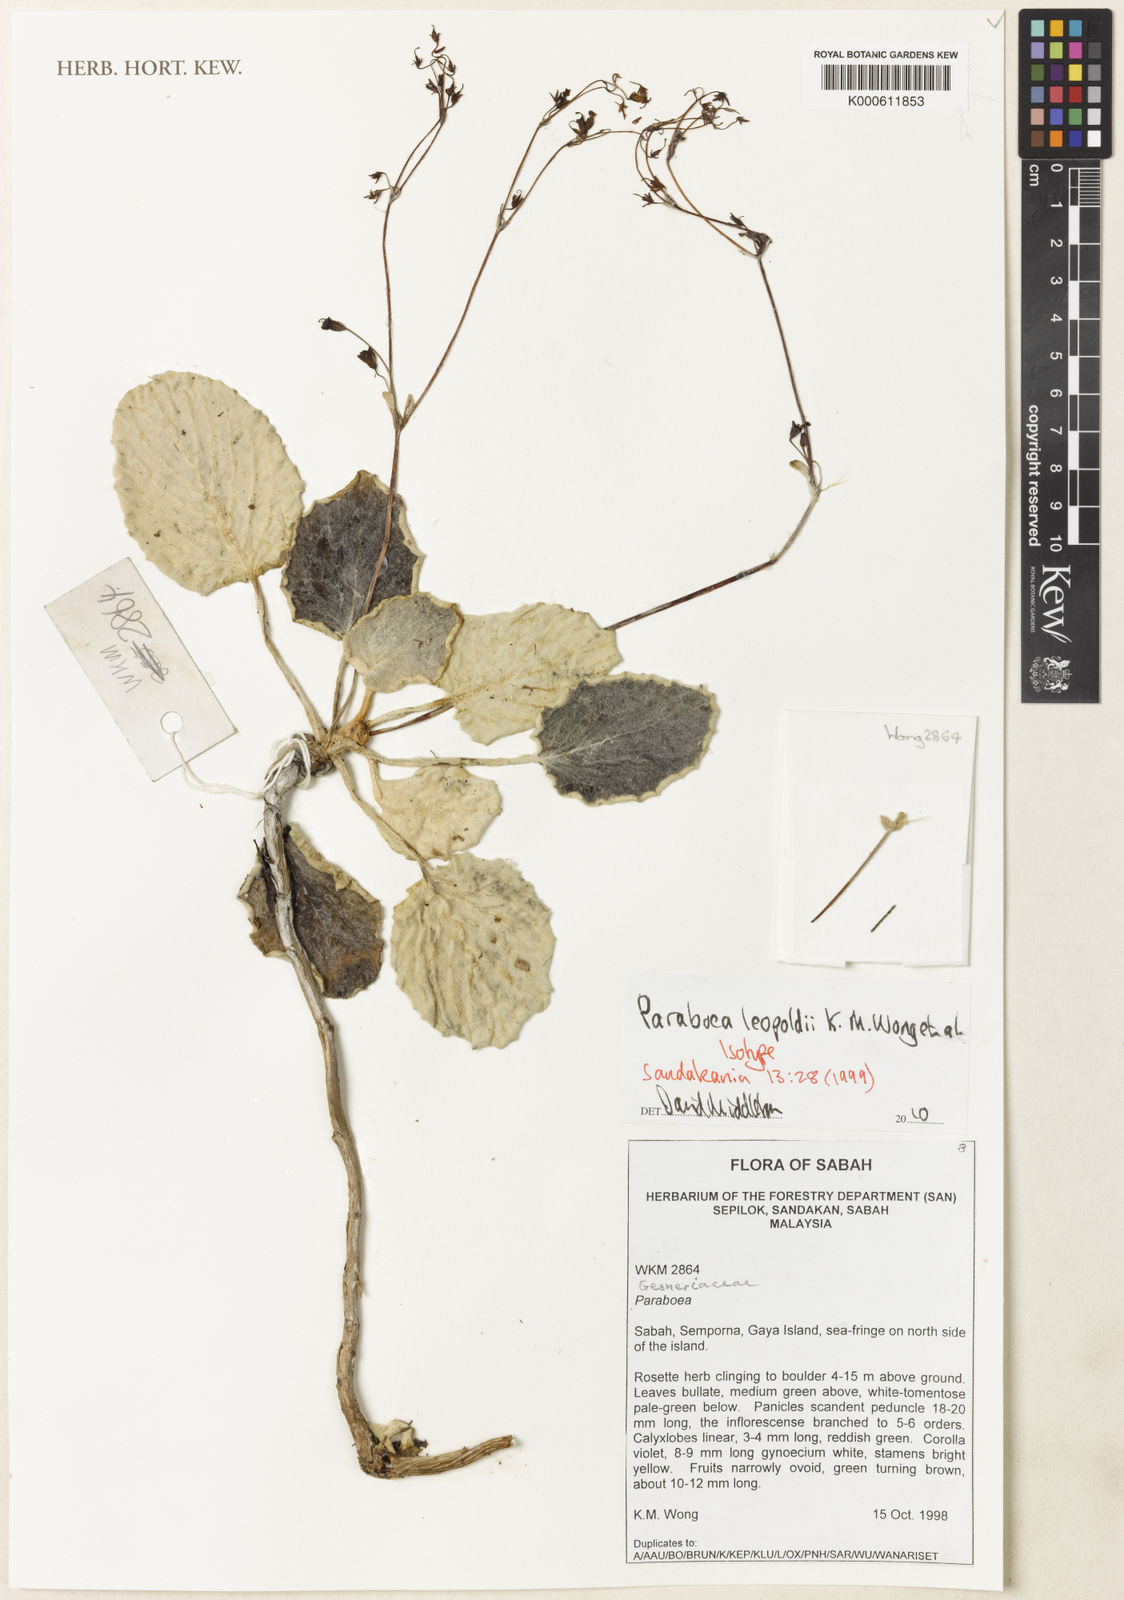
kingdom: Plantae
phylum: Tracheophyta
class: Magnoliopsida
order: Lamiales
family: Gesneriaceae
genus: Paraboea
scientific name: Paraboea leopoldii
